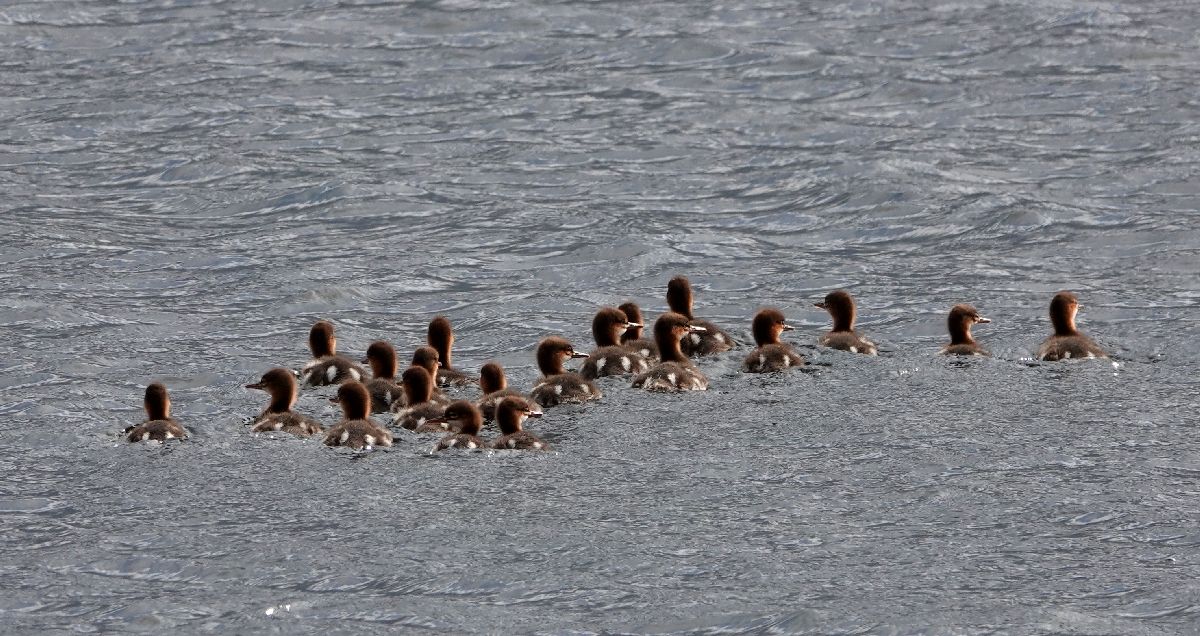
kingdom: Animalia
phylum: Chordata
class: Aves
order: Anseriformes
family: Anatidae
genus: Mergus
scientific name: Mergus serrator
